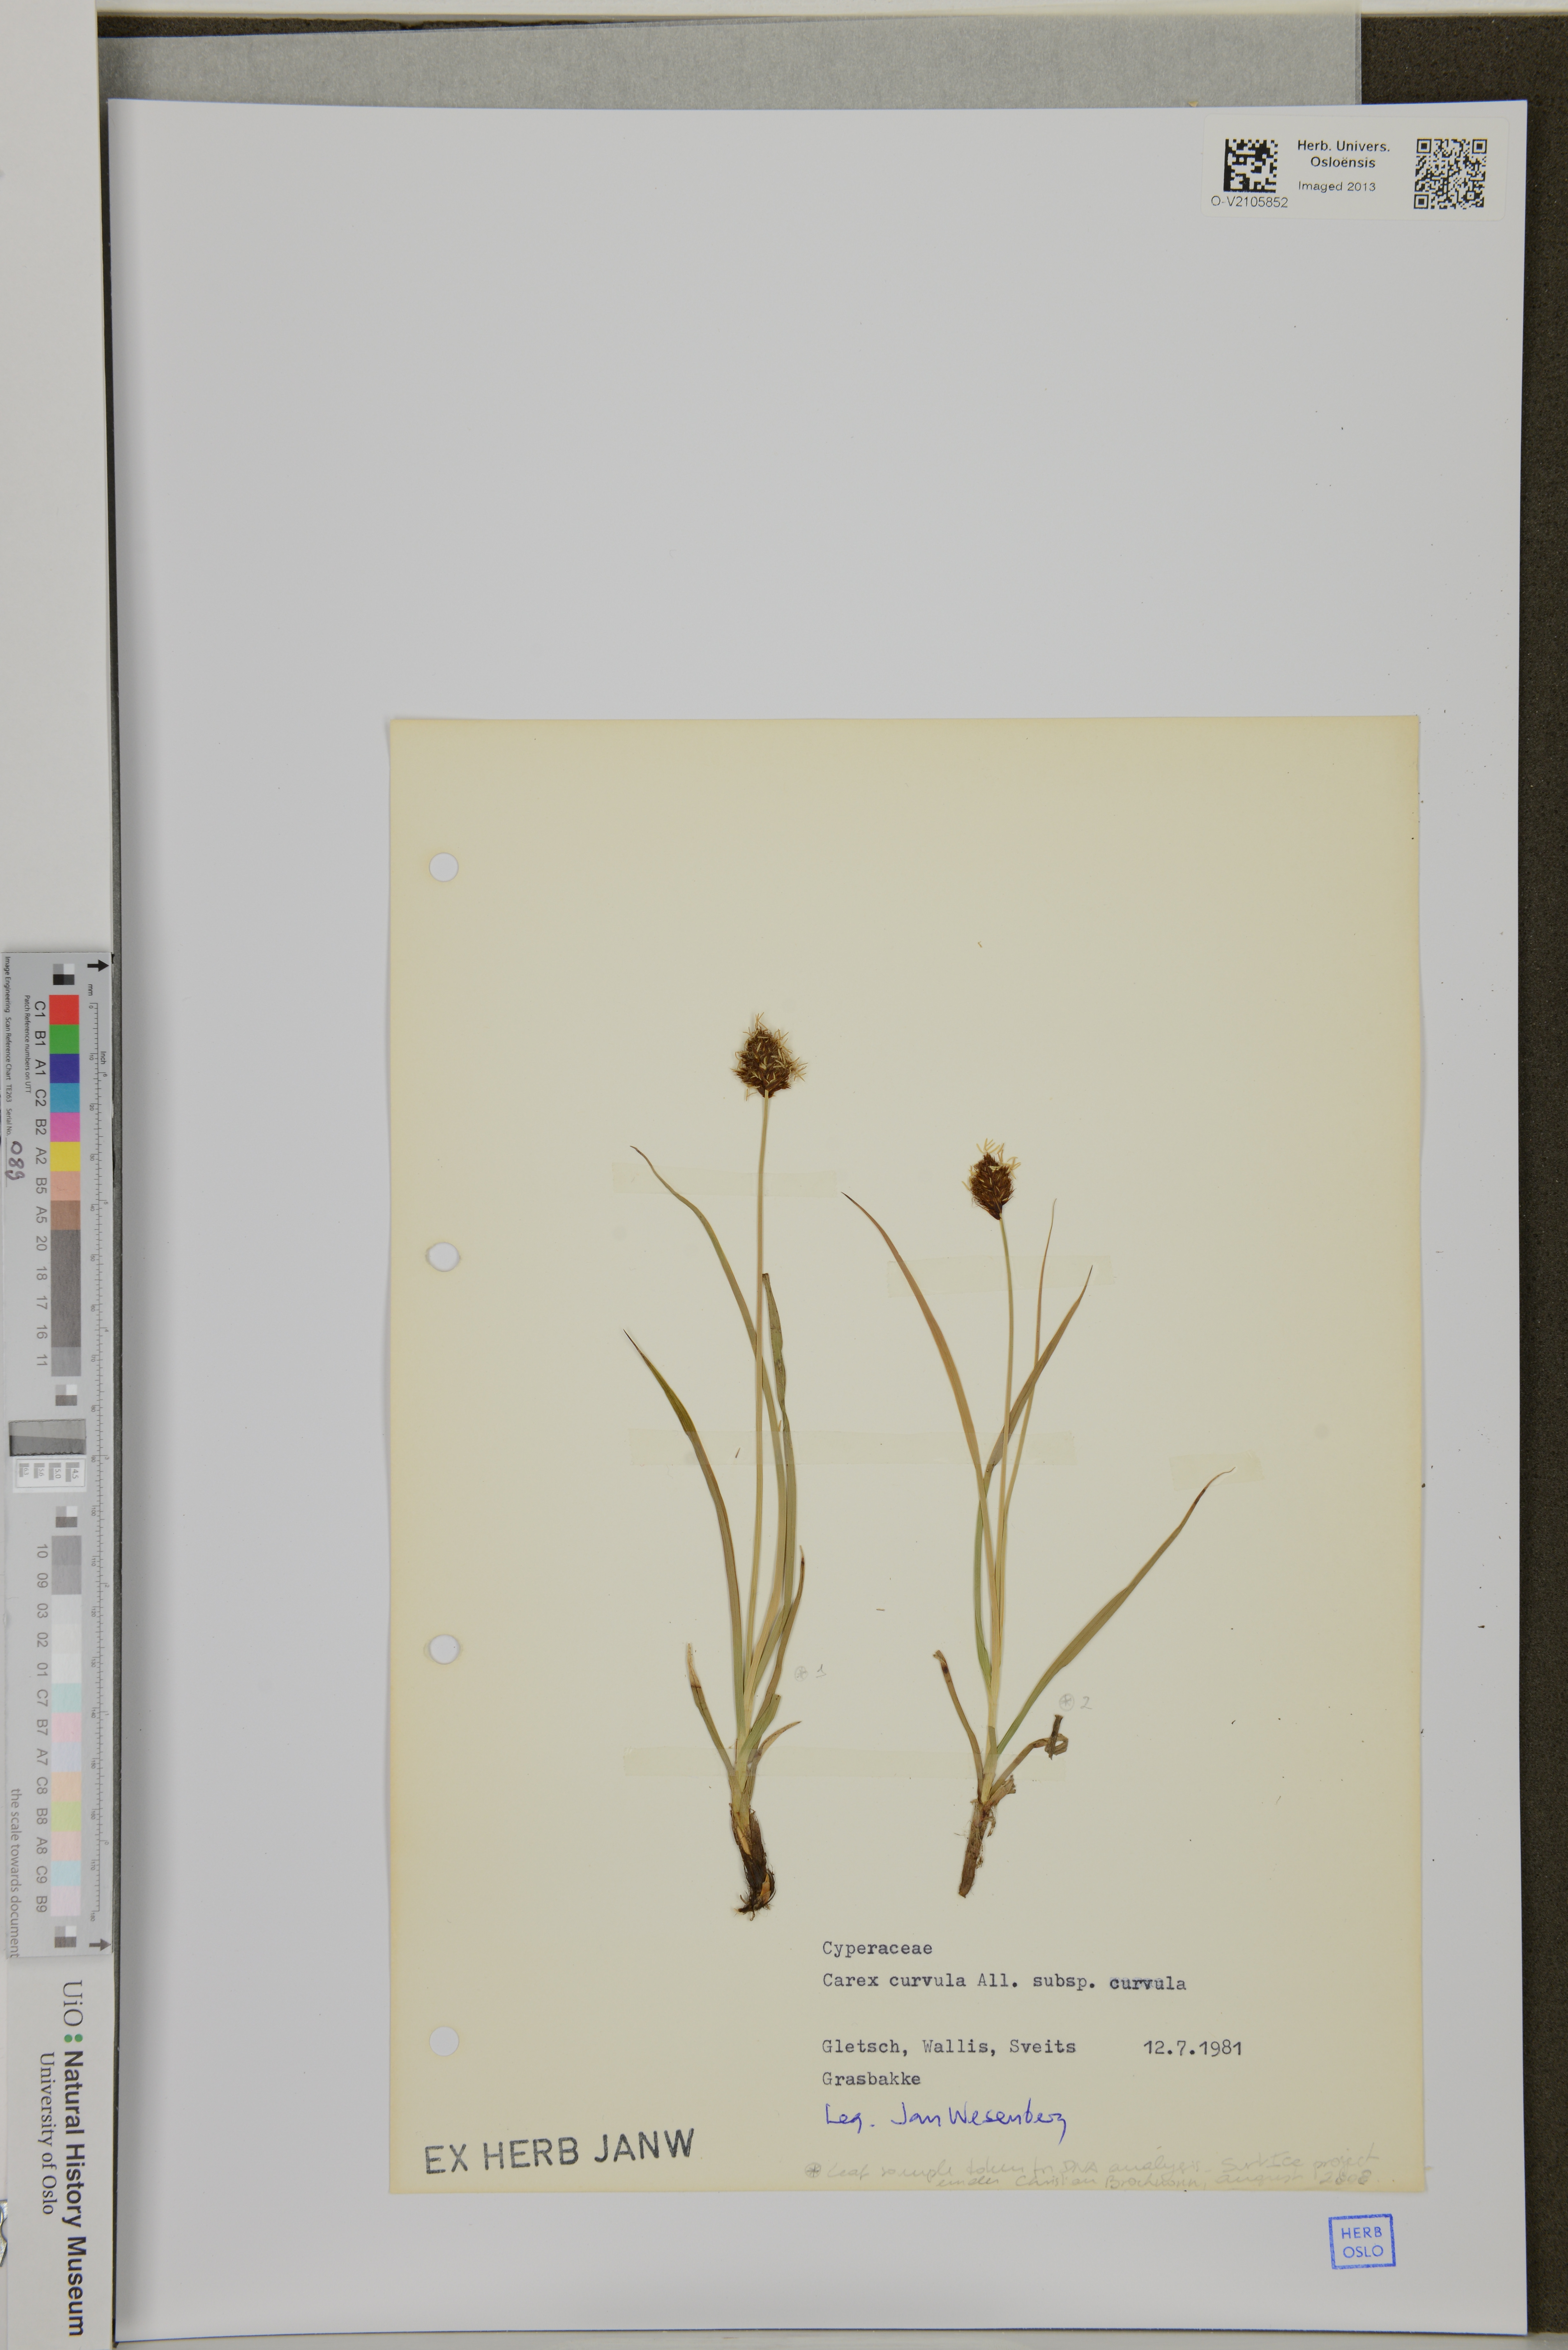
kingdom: Plantae
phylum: Tracheophyta
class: Liliopsida
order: Poales
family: Cyperaceae
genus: Carex
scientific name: Carex curvula
